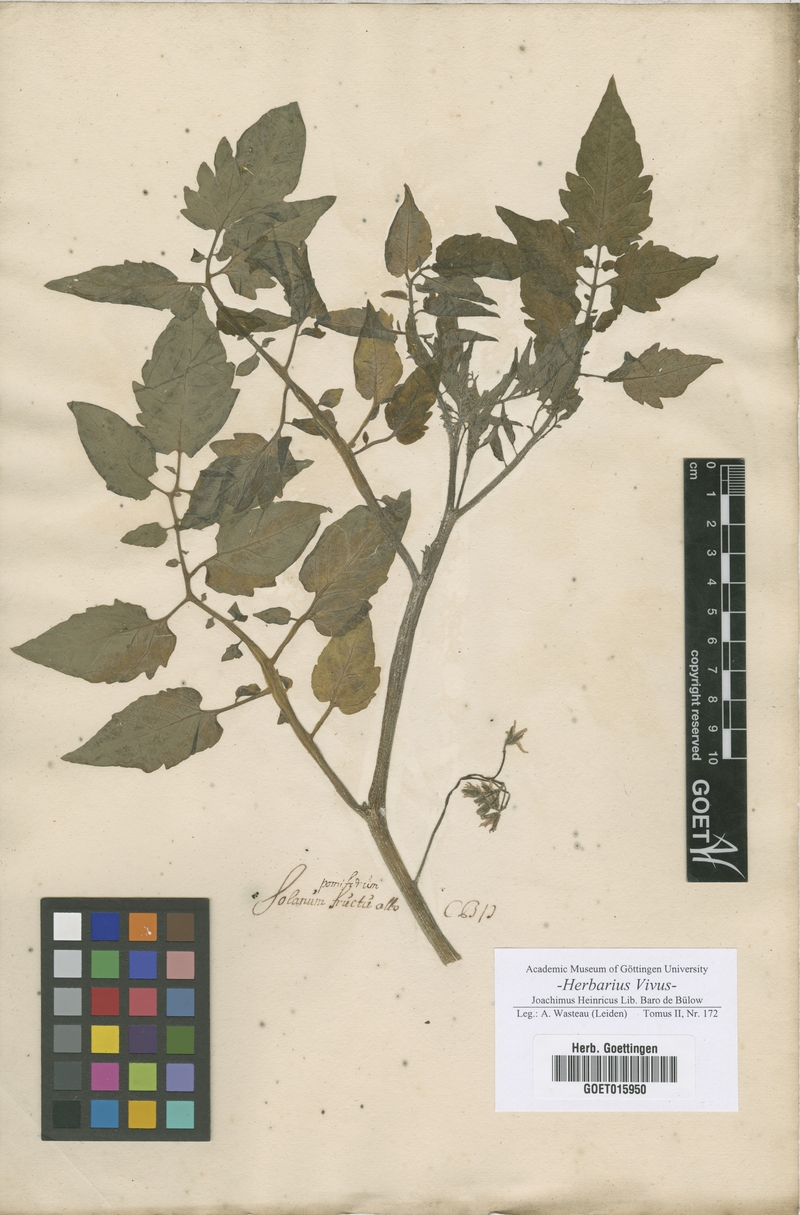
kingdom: Plantae
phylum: Tracheophyta
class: Magnoliopsida
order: Solanales
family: Solanaceae
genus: Solanum
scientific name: Solanum
